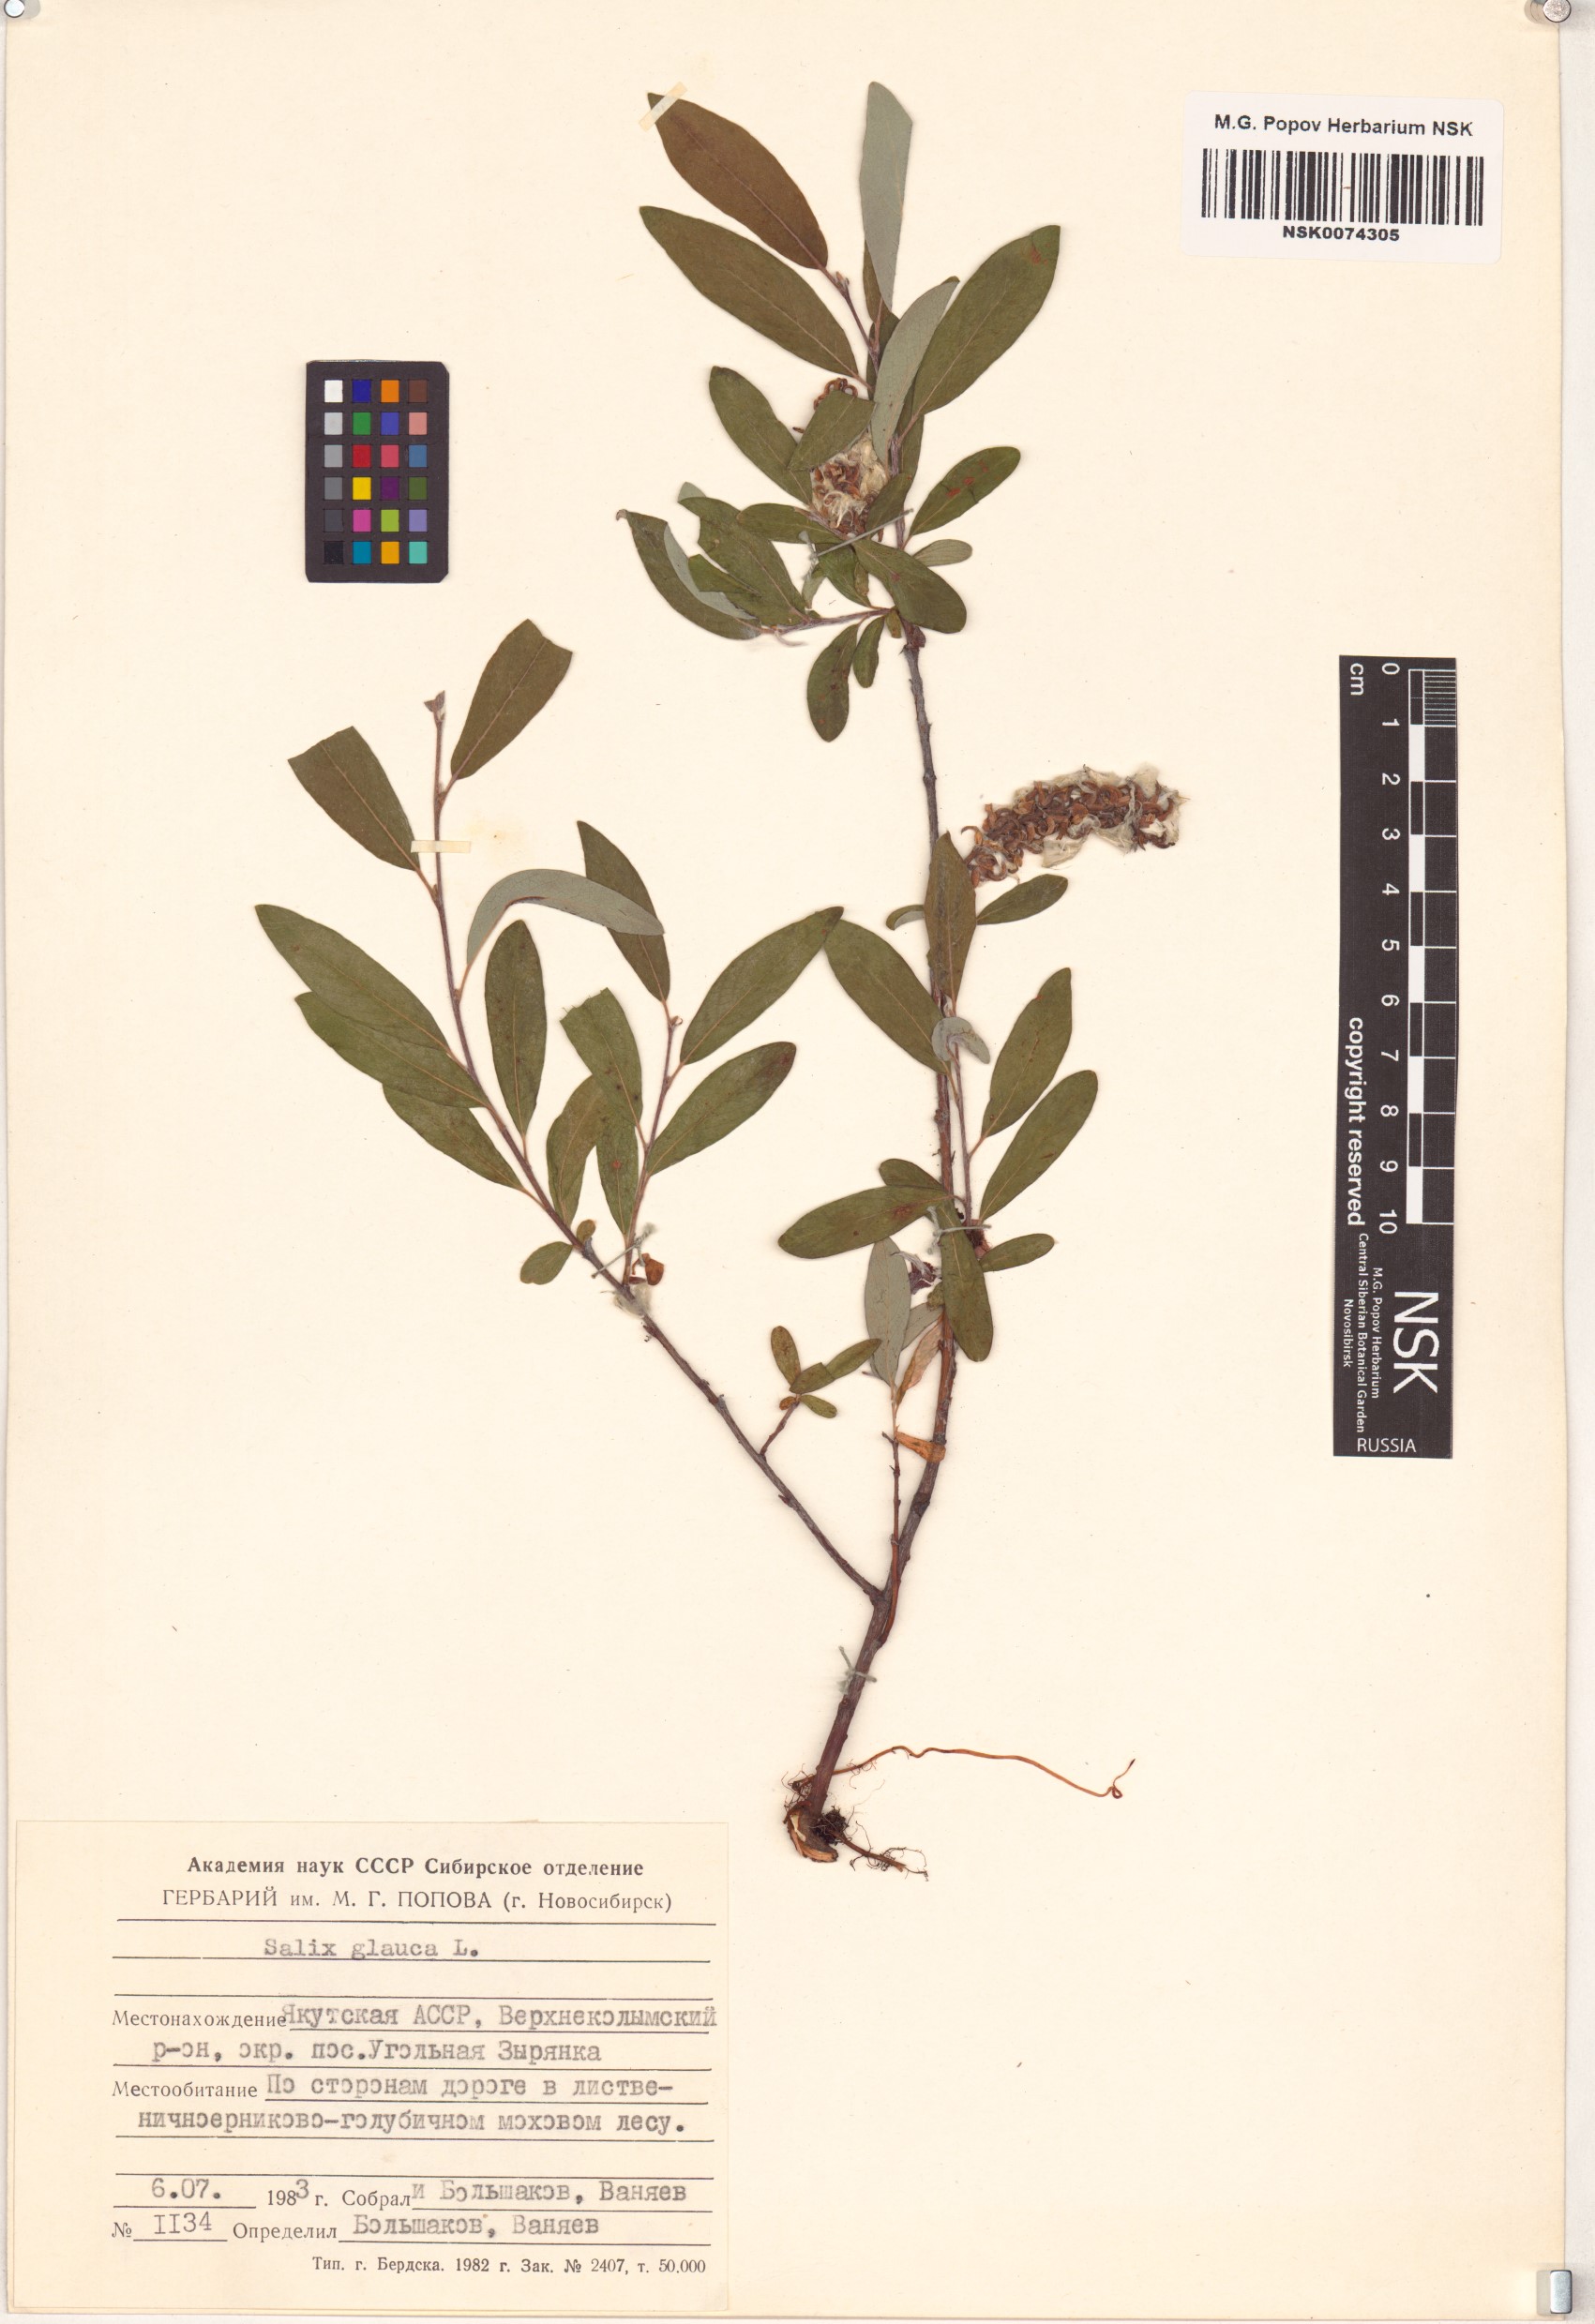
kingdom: Plantae
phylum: Tracheophyta
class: Magnoliopsida
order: Malpighiales
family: Salicaceae
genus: Salix
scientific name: Salix glauca
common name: Glaucous willow
